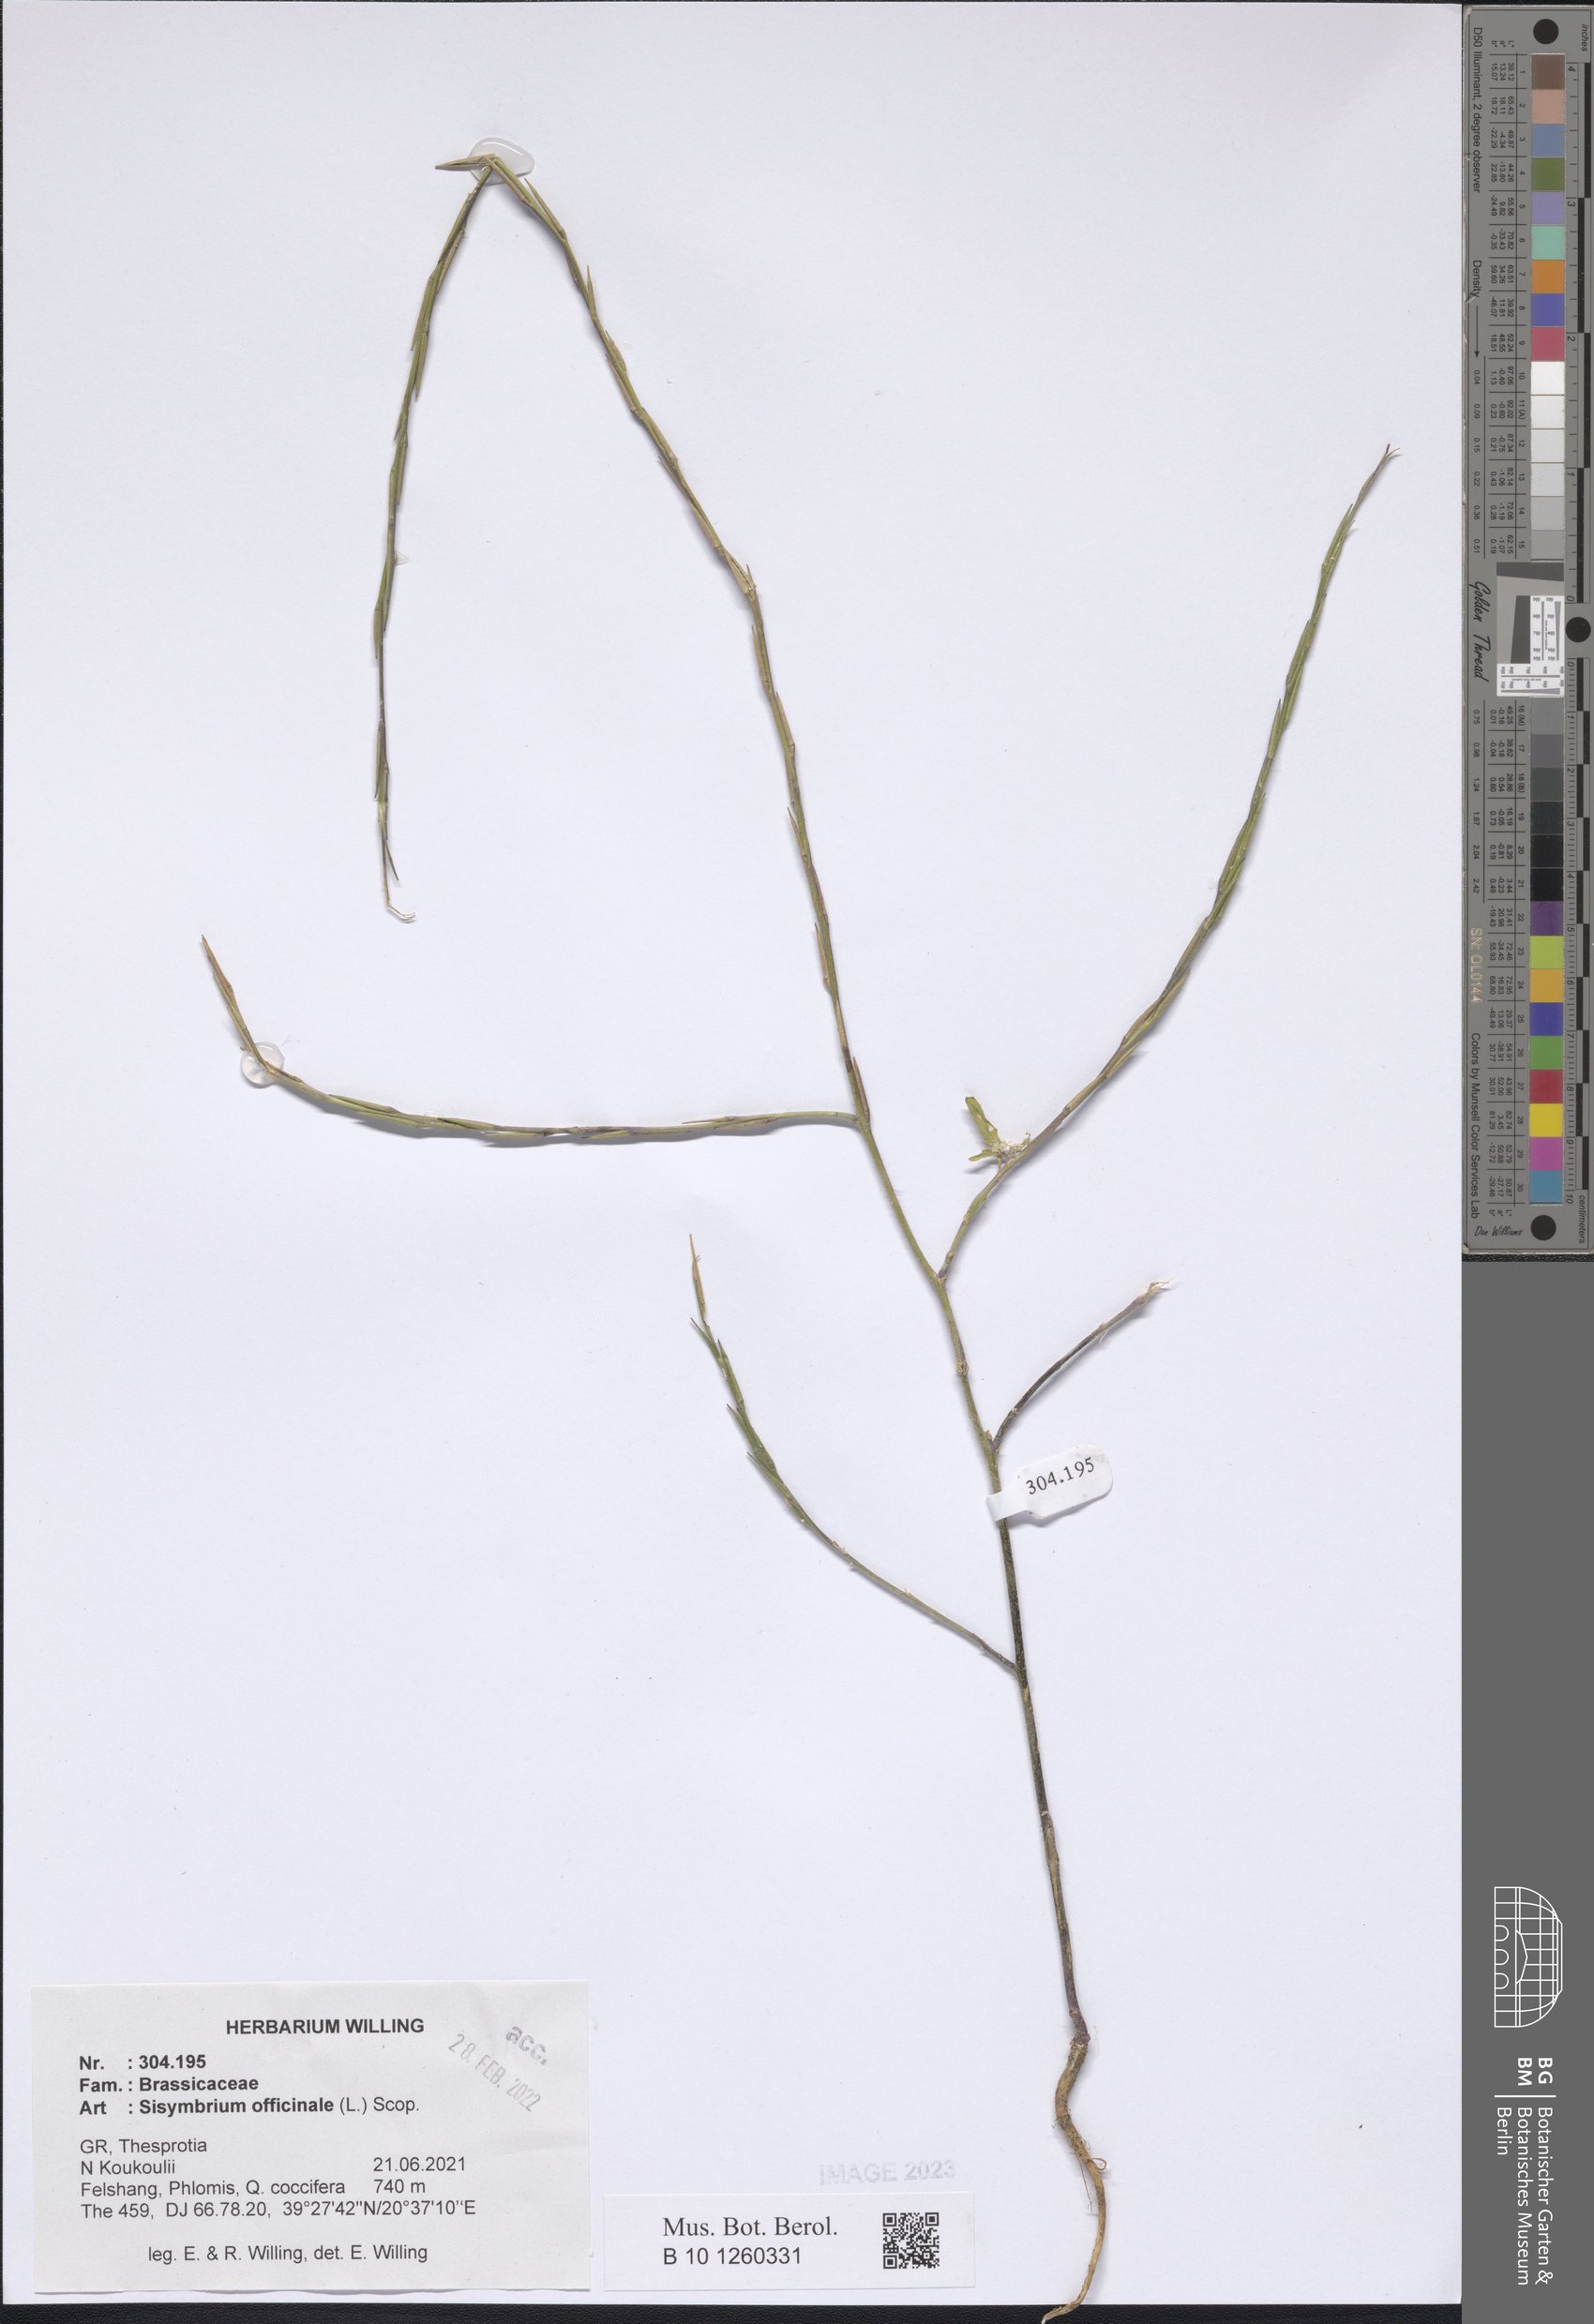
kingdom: Plantae
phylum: Tracheophyta
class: Magnoliopsida
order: Brassicales
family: Brassicaceae
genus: Sisymbrium
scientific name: Sisymbrium officinale
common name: Hedge mustard
